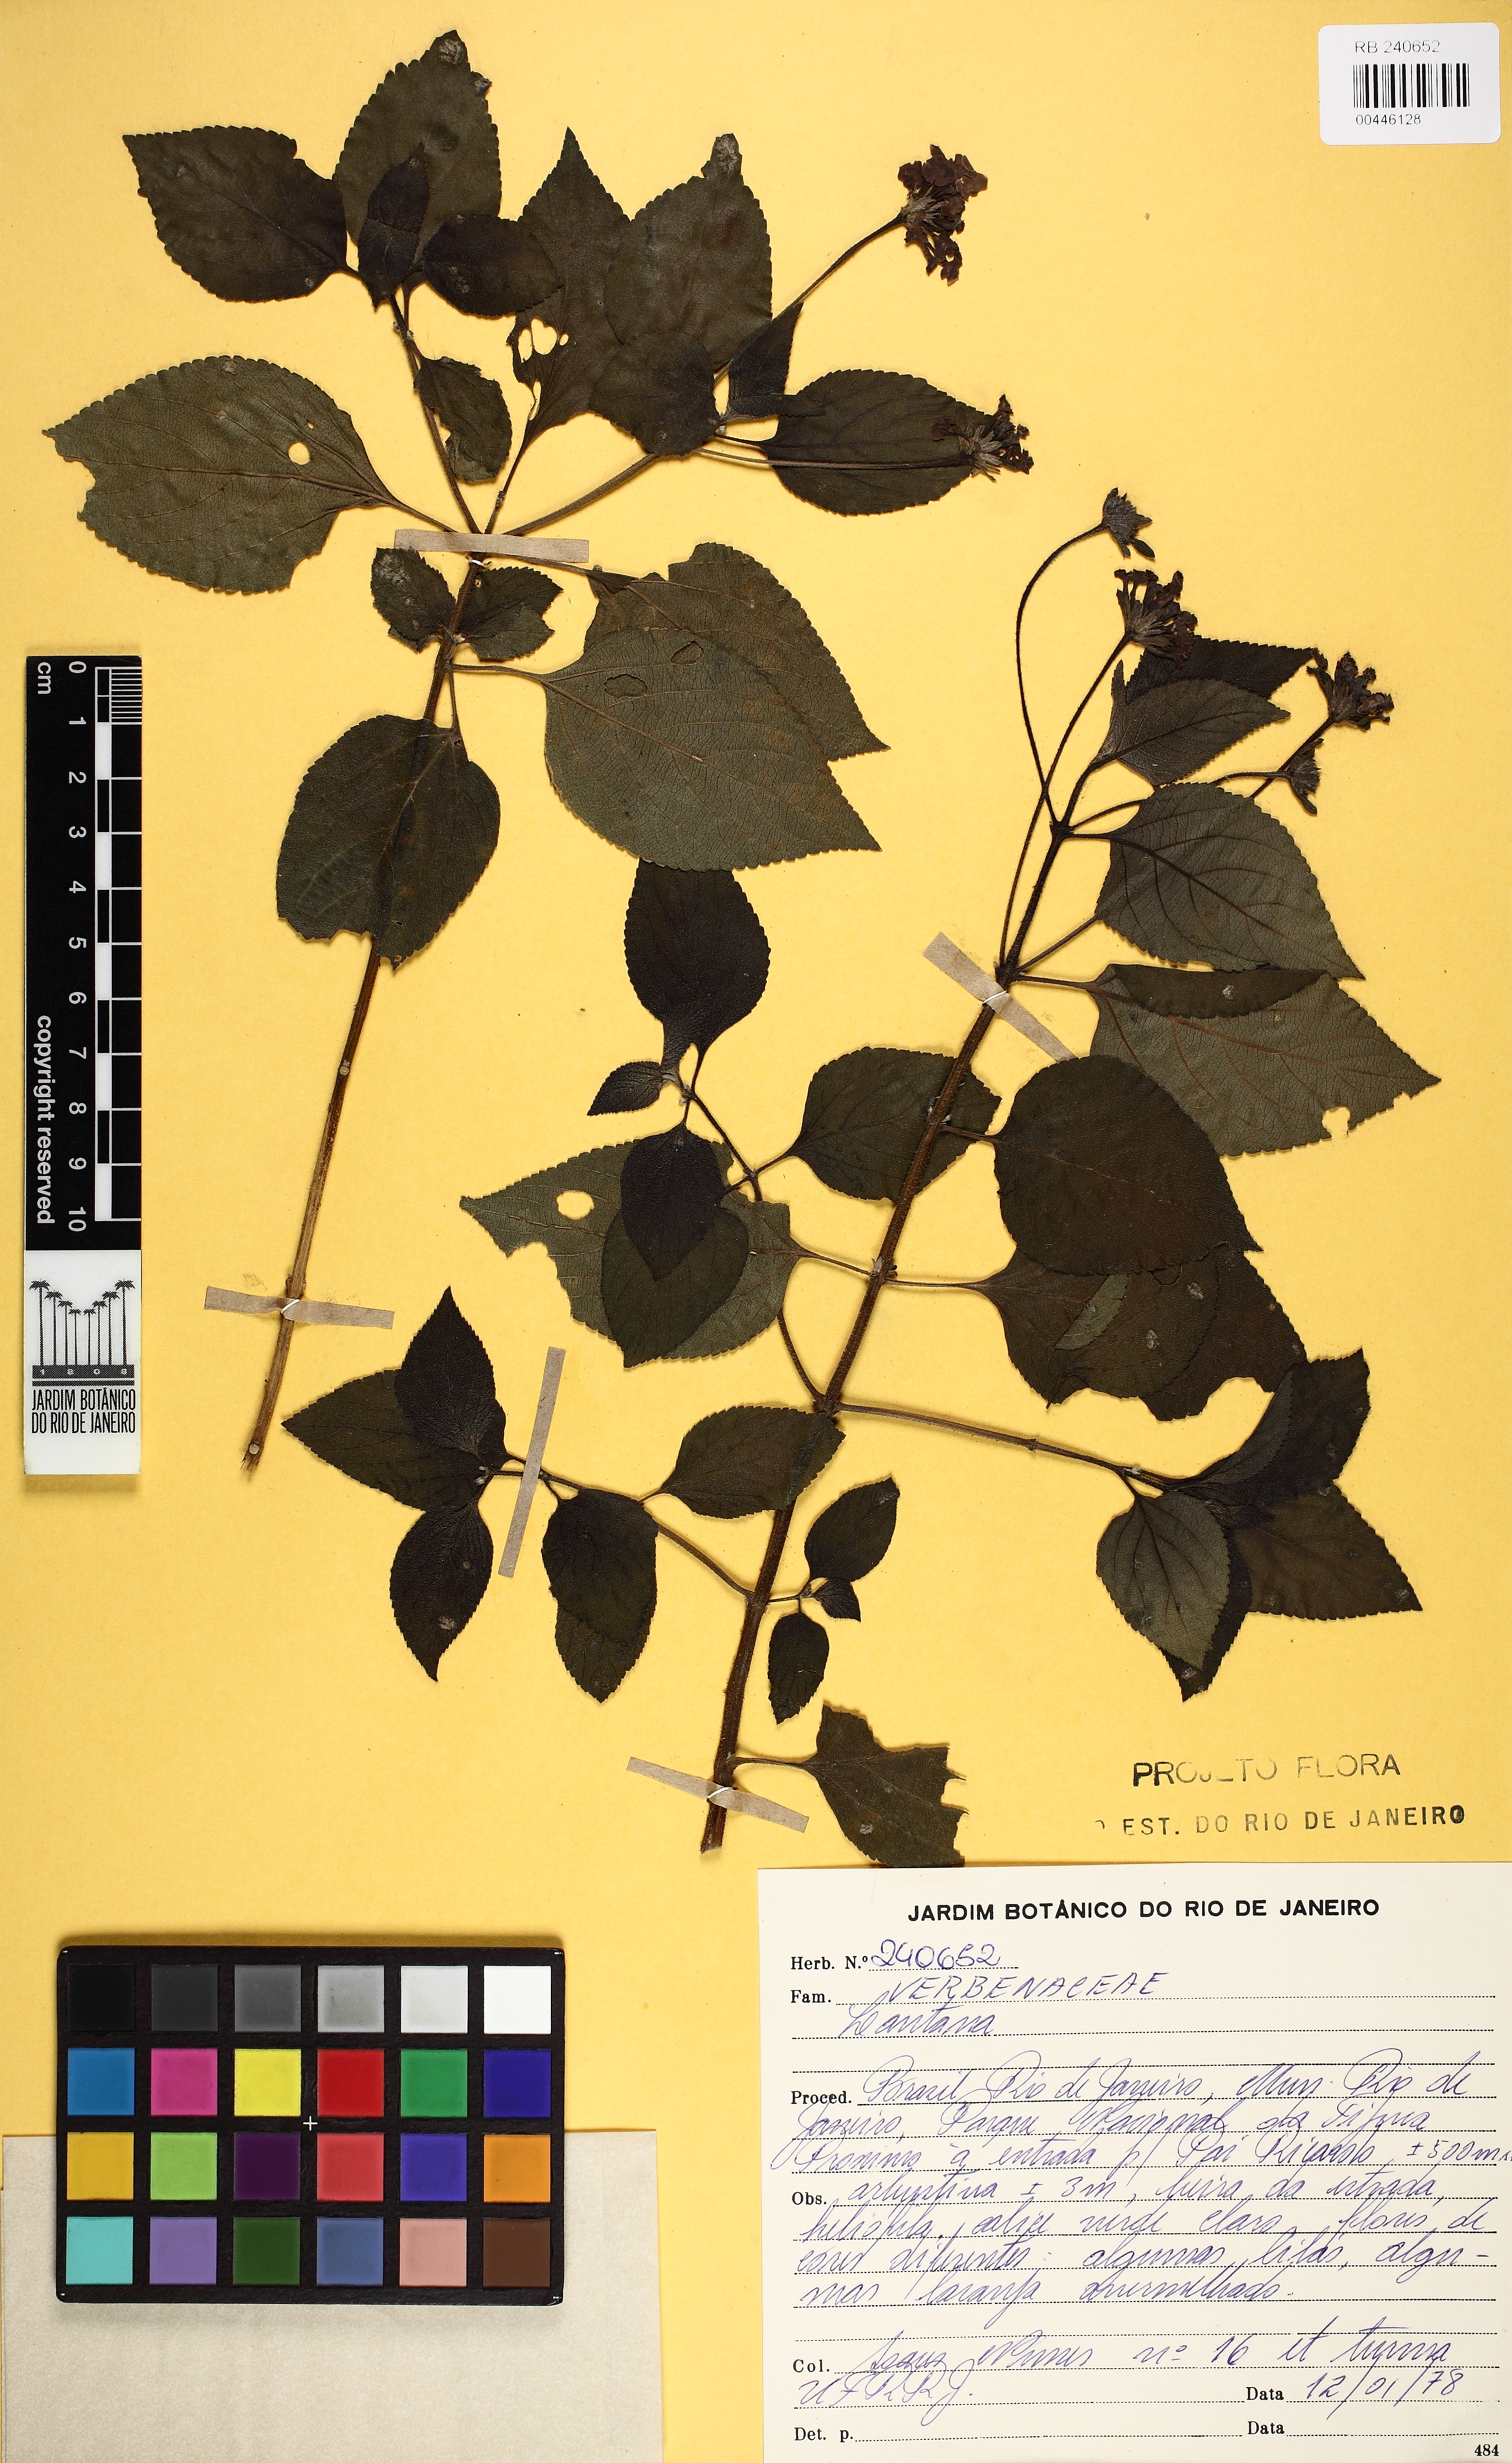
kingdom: Plantae
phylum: Tracheophyta
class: Magnoliopsida
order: Lamiales
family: Verbenaceae
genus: Lantana
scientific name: Lantana
